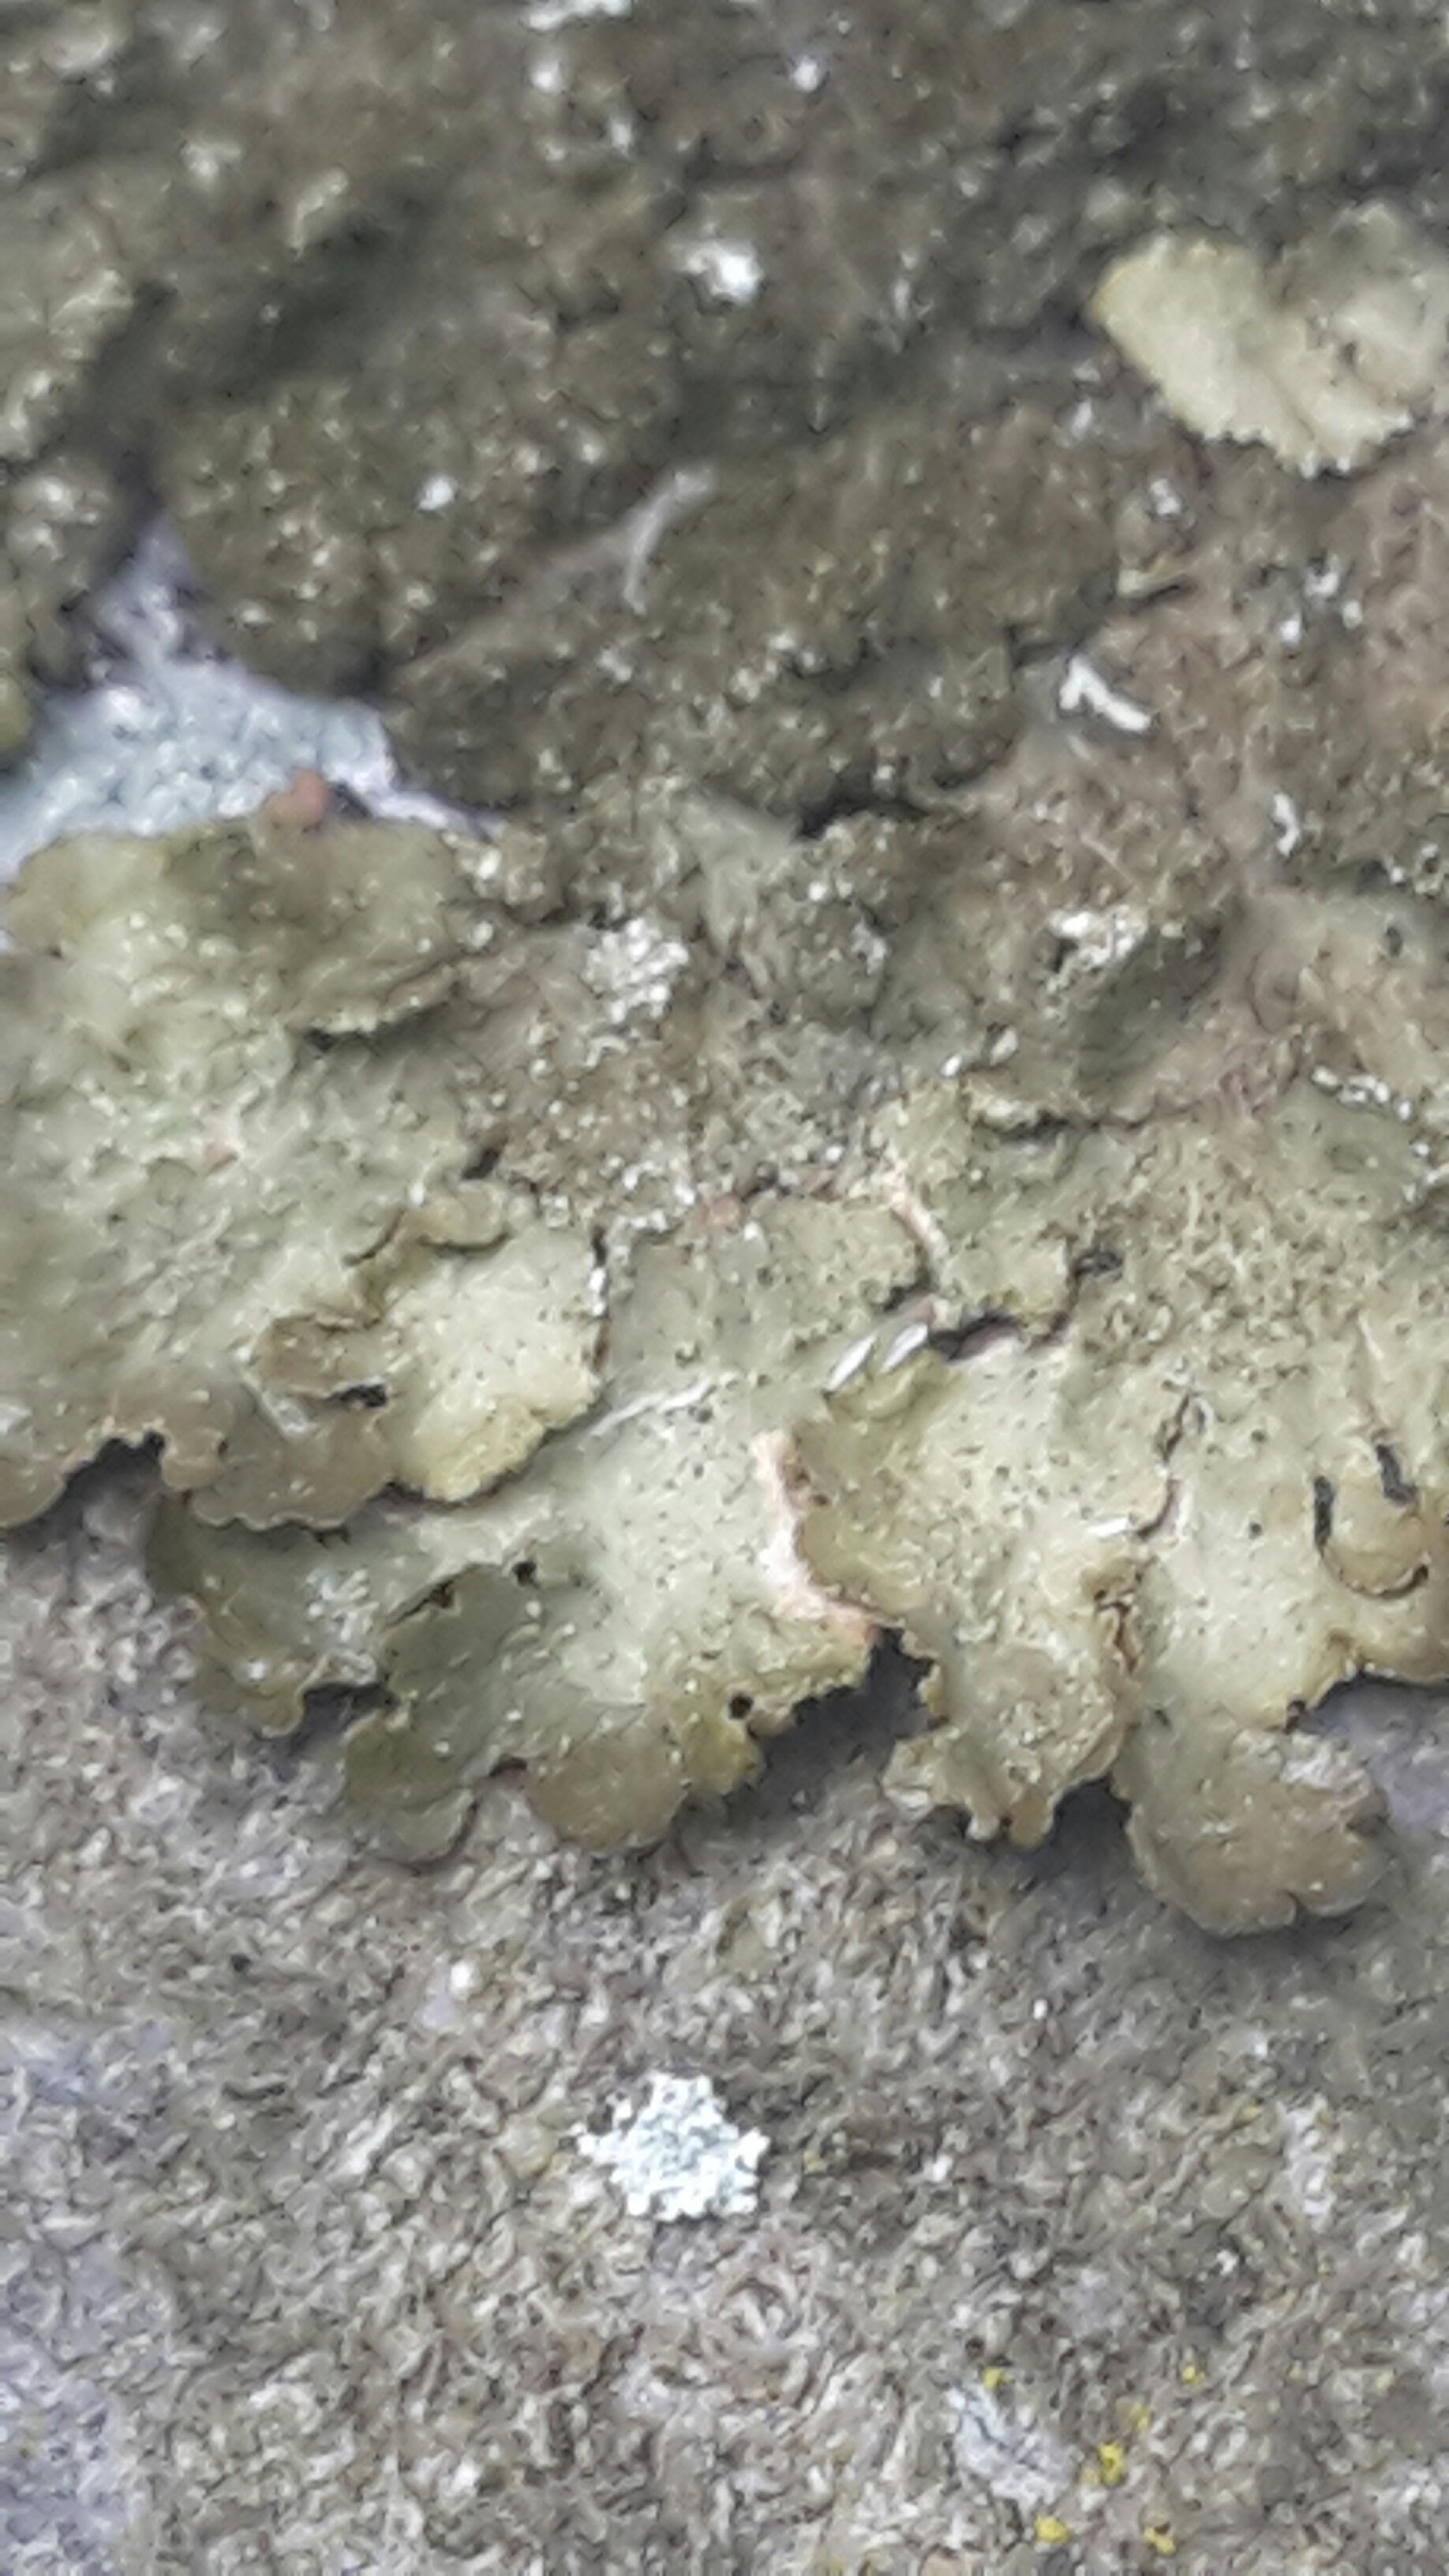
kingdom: Fungi
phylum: Ascomycota
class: Lecanoromycetes
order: Lecanorales
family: Parmeliaceae
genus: Melanelixia
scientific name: Melanelixia subaurifera
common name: guldpudret skållav
